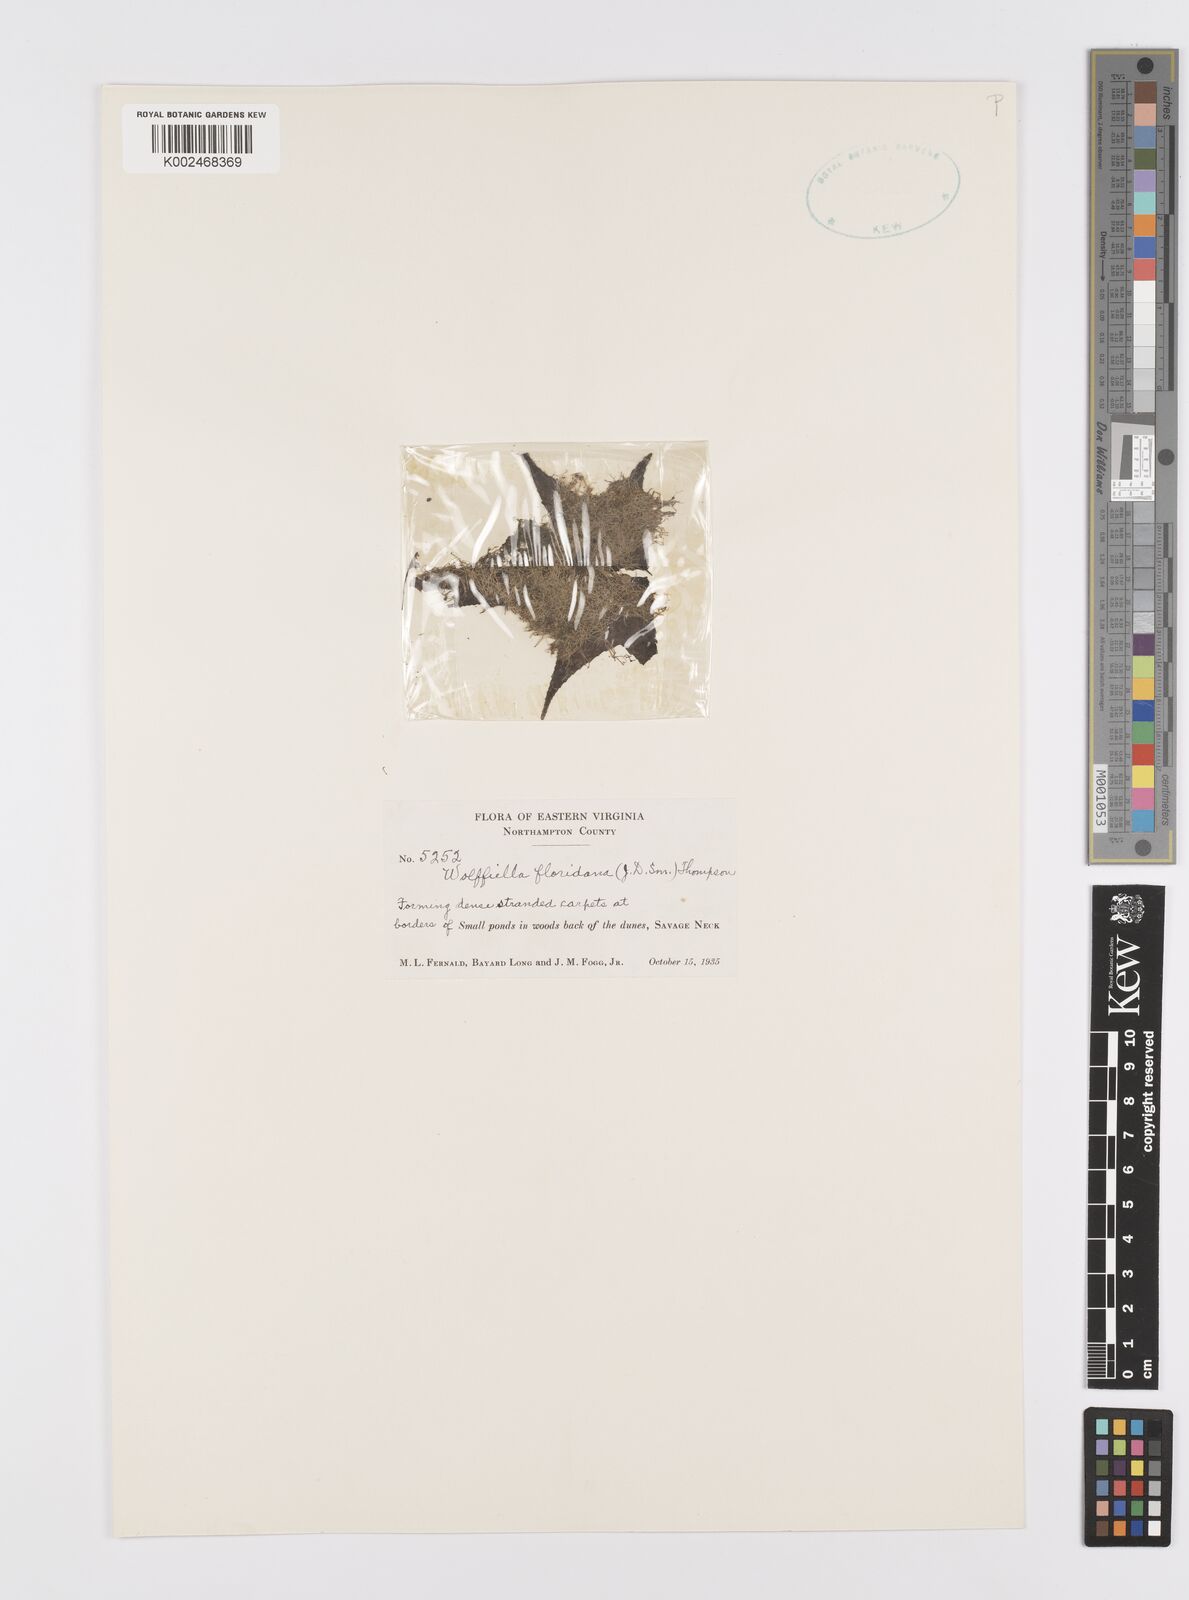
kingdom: Plantae
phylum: Tracheophyta
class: Liliopsida
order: Alismatales
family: Araceae
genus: Wolffiella
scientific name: Wolffiella gladiata
